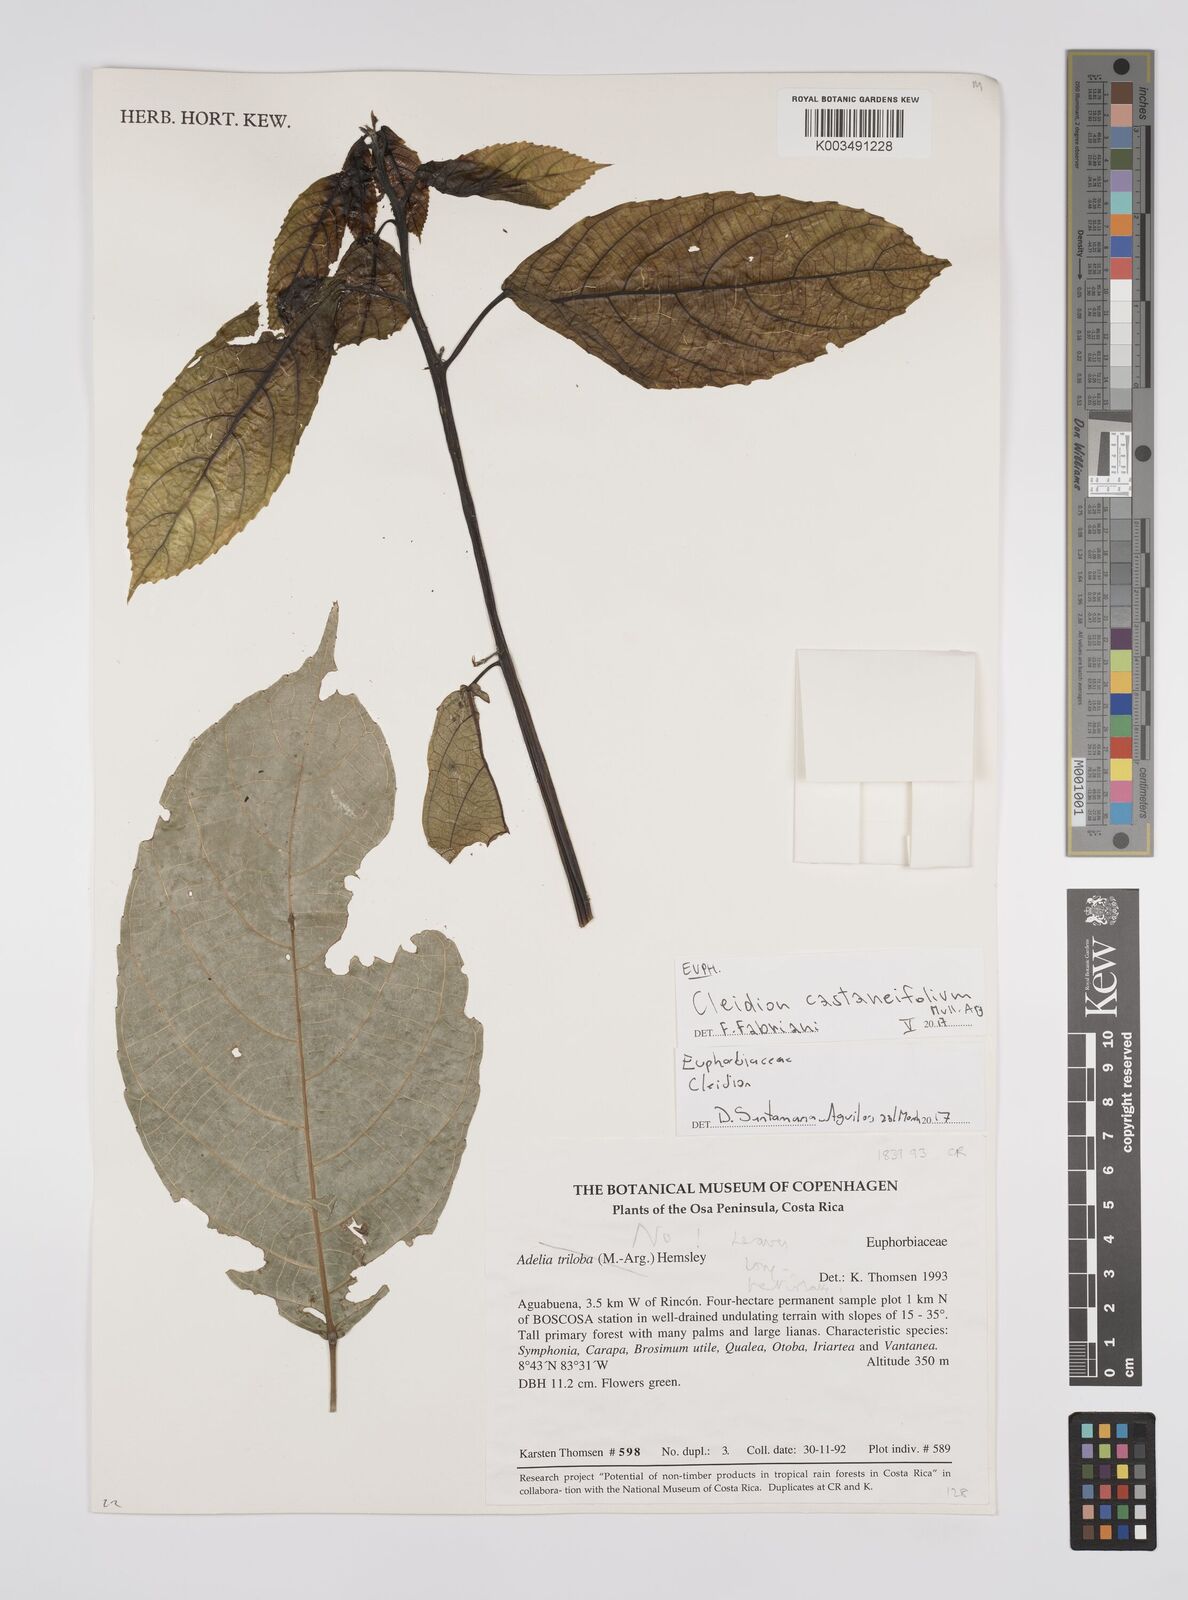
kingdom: Plantae
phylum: Tracheophyta
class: Magnoliopsida
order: Malpighiales
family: Euphorbiaceae
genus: Cleidion
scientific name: Cleidion castaneifolium
